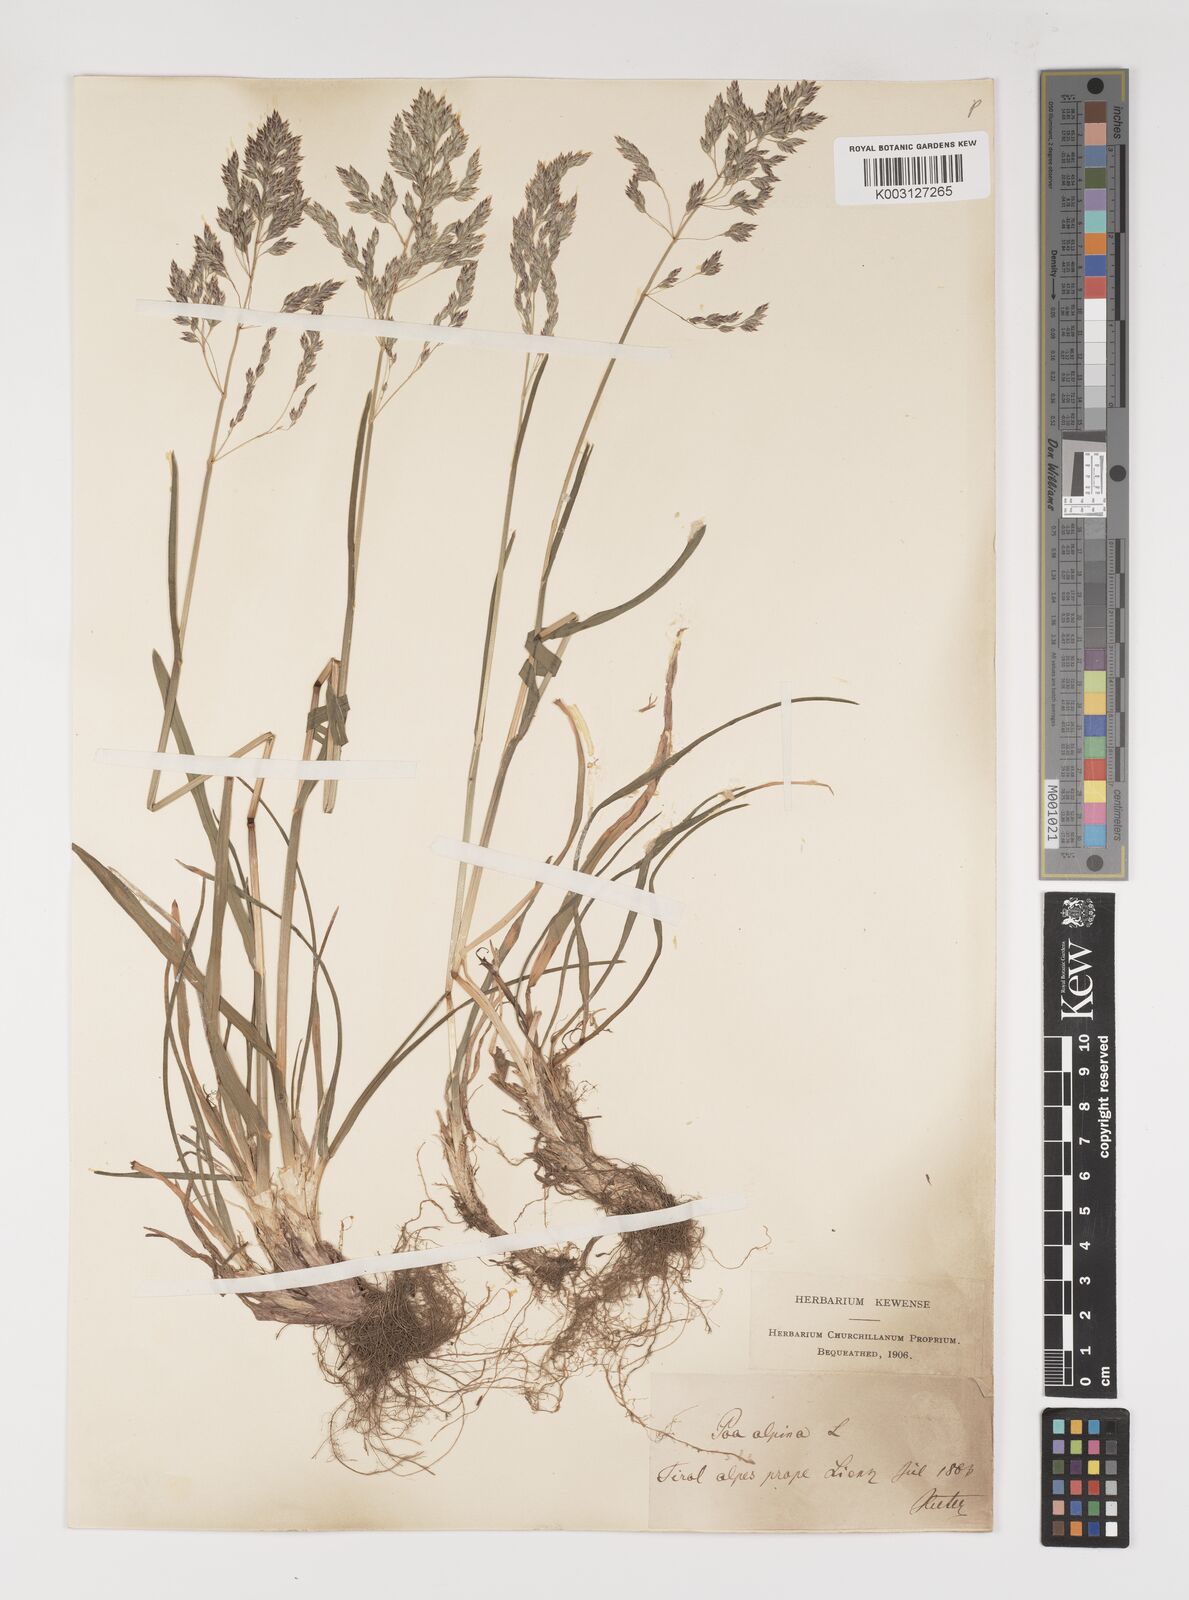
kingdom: Plantae
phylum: Tracheophyta
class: Liliopsida
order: Poales
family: Poaceae
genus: Poa
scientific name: Poa alpina
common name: Alpine bluegrass
